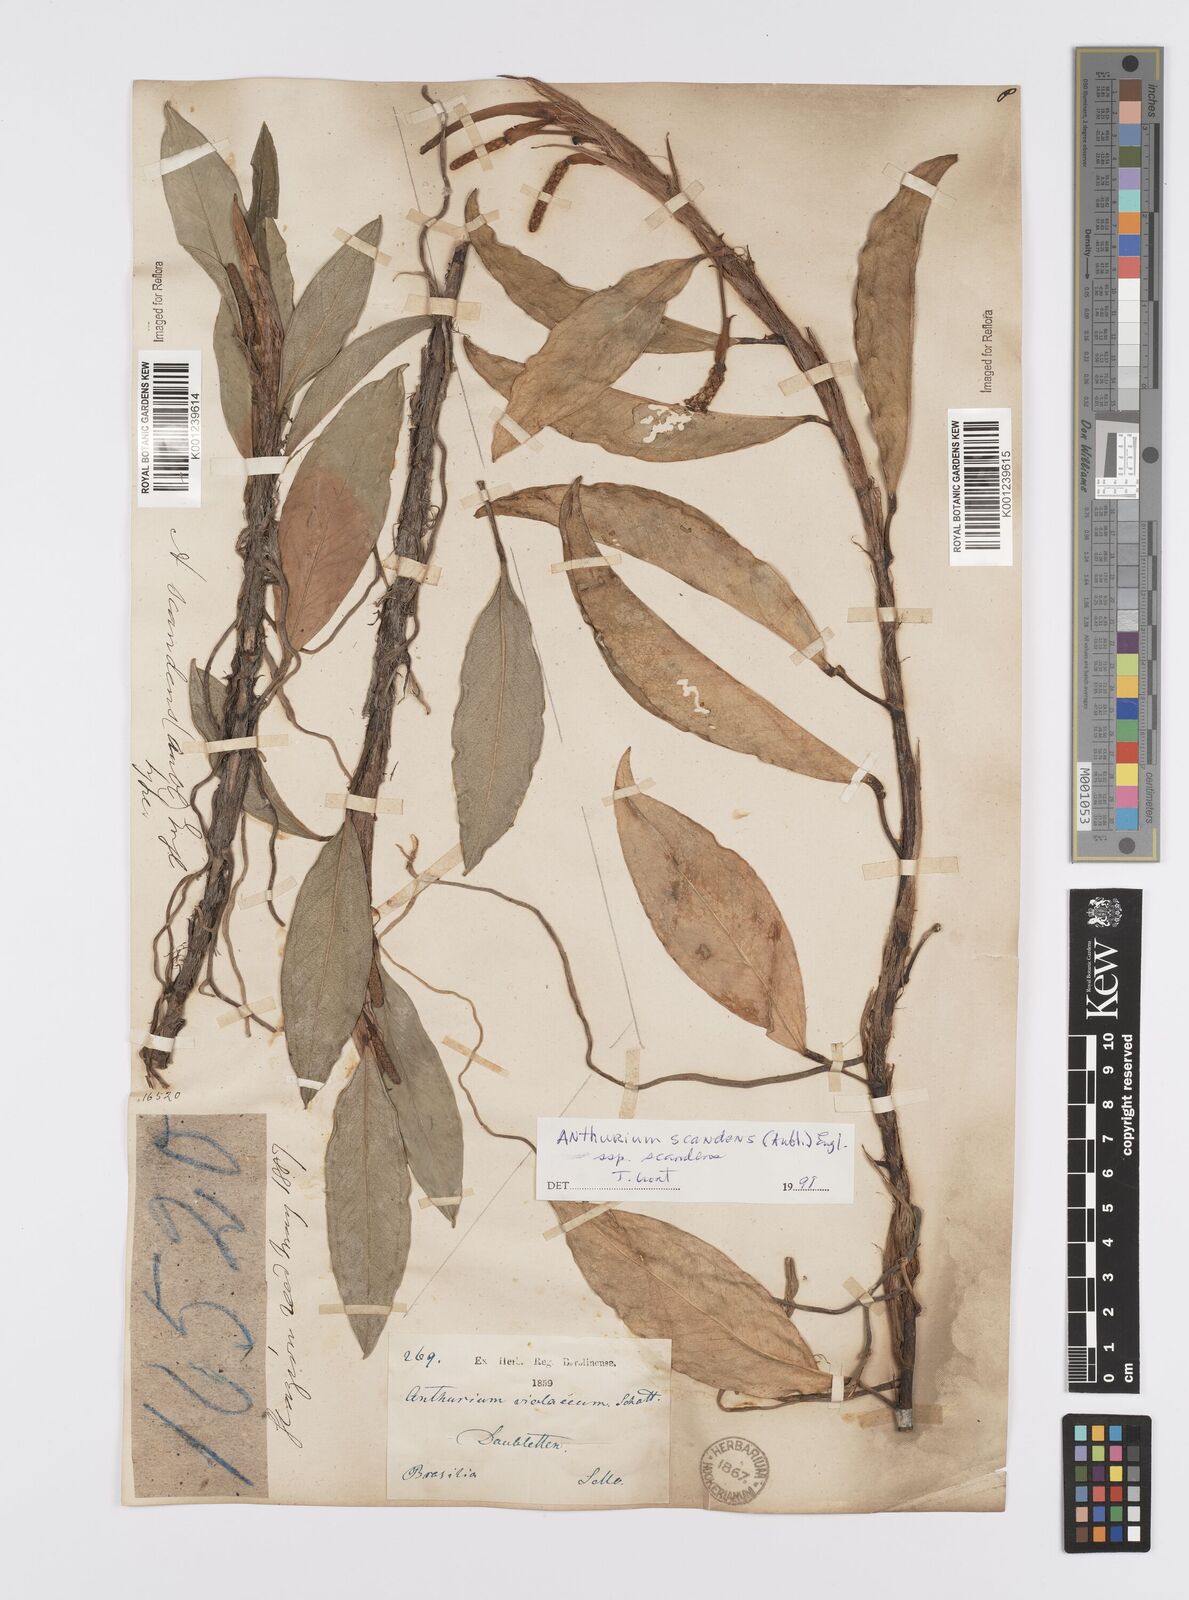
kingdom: Plantae
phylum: Tracheophyta
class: Liliopsida
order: Alismatales
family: Araceae
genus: Anthurium
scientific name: Anthurium scandens
